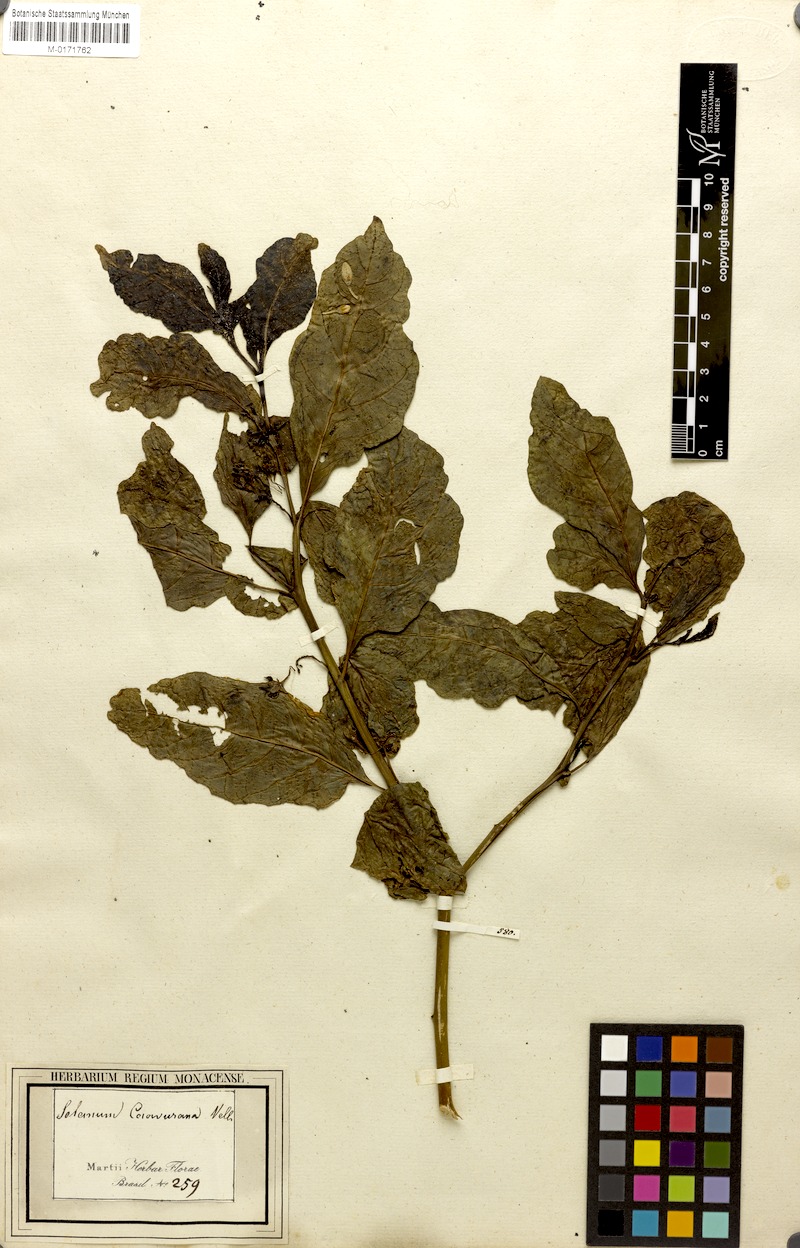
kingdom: Plantae
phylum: Tracheophyta
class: Magnoliopsida
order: Solanales
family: Solanaceae
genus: Solanum
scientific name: Solanum caavurana
